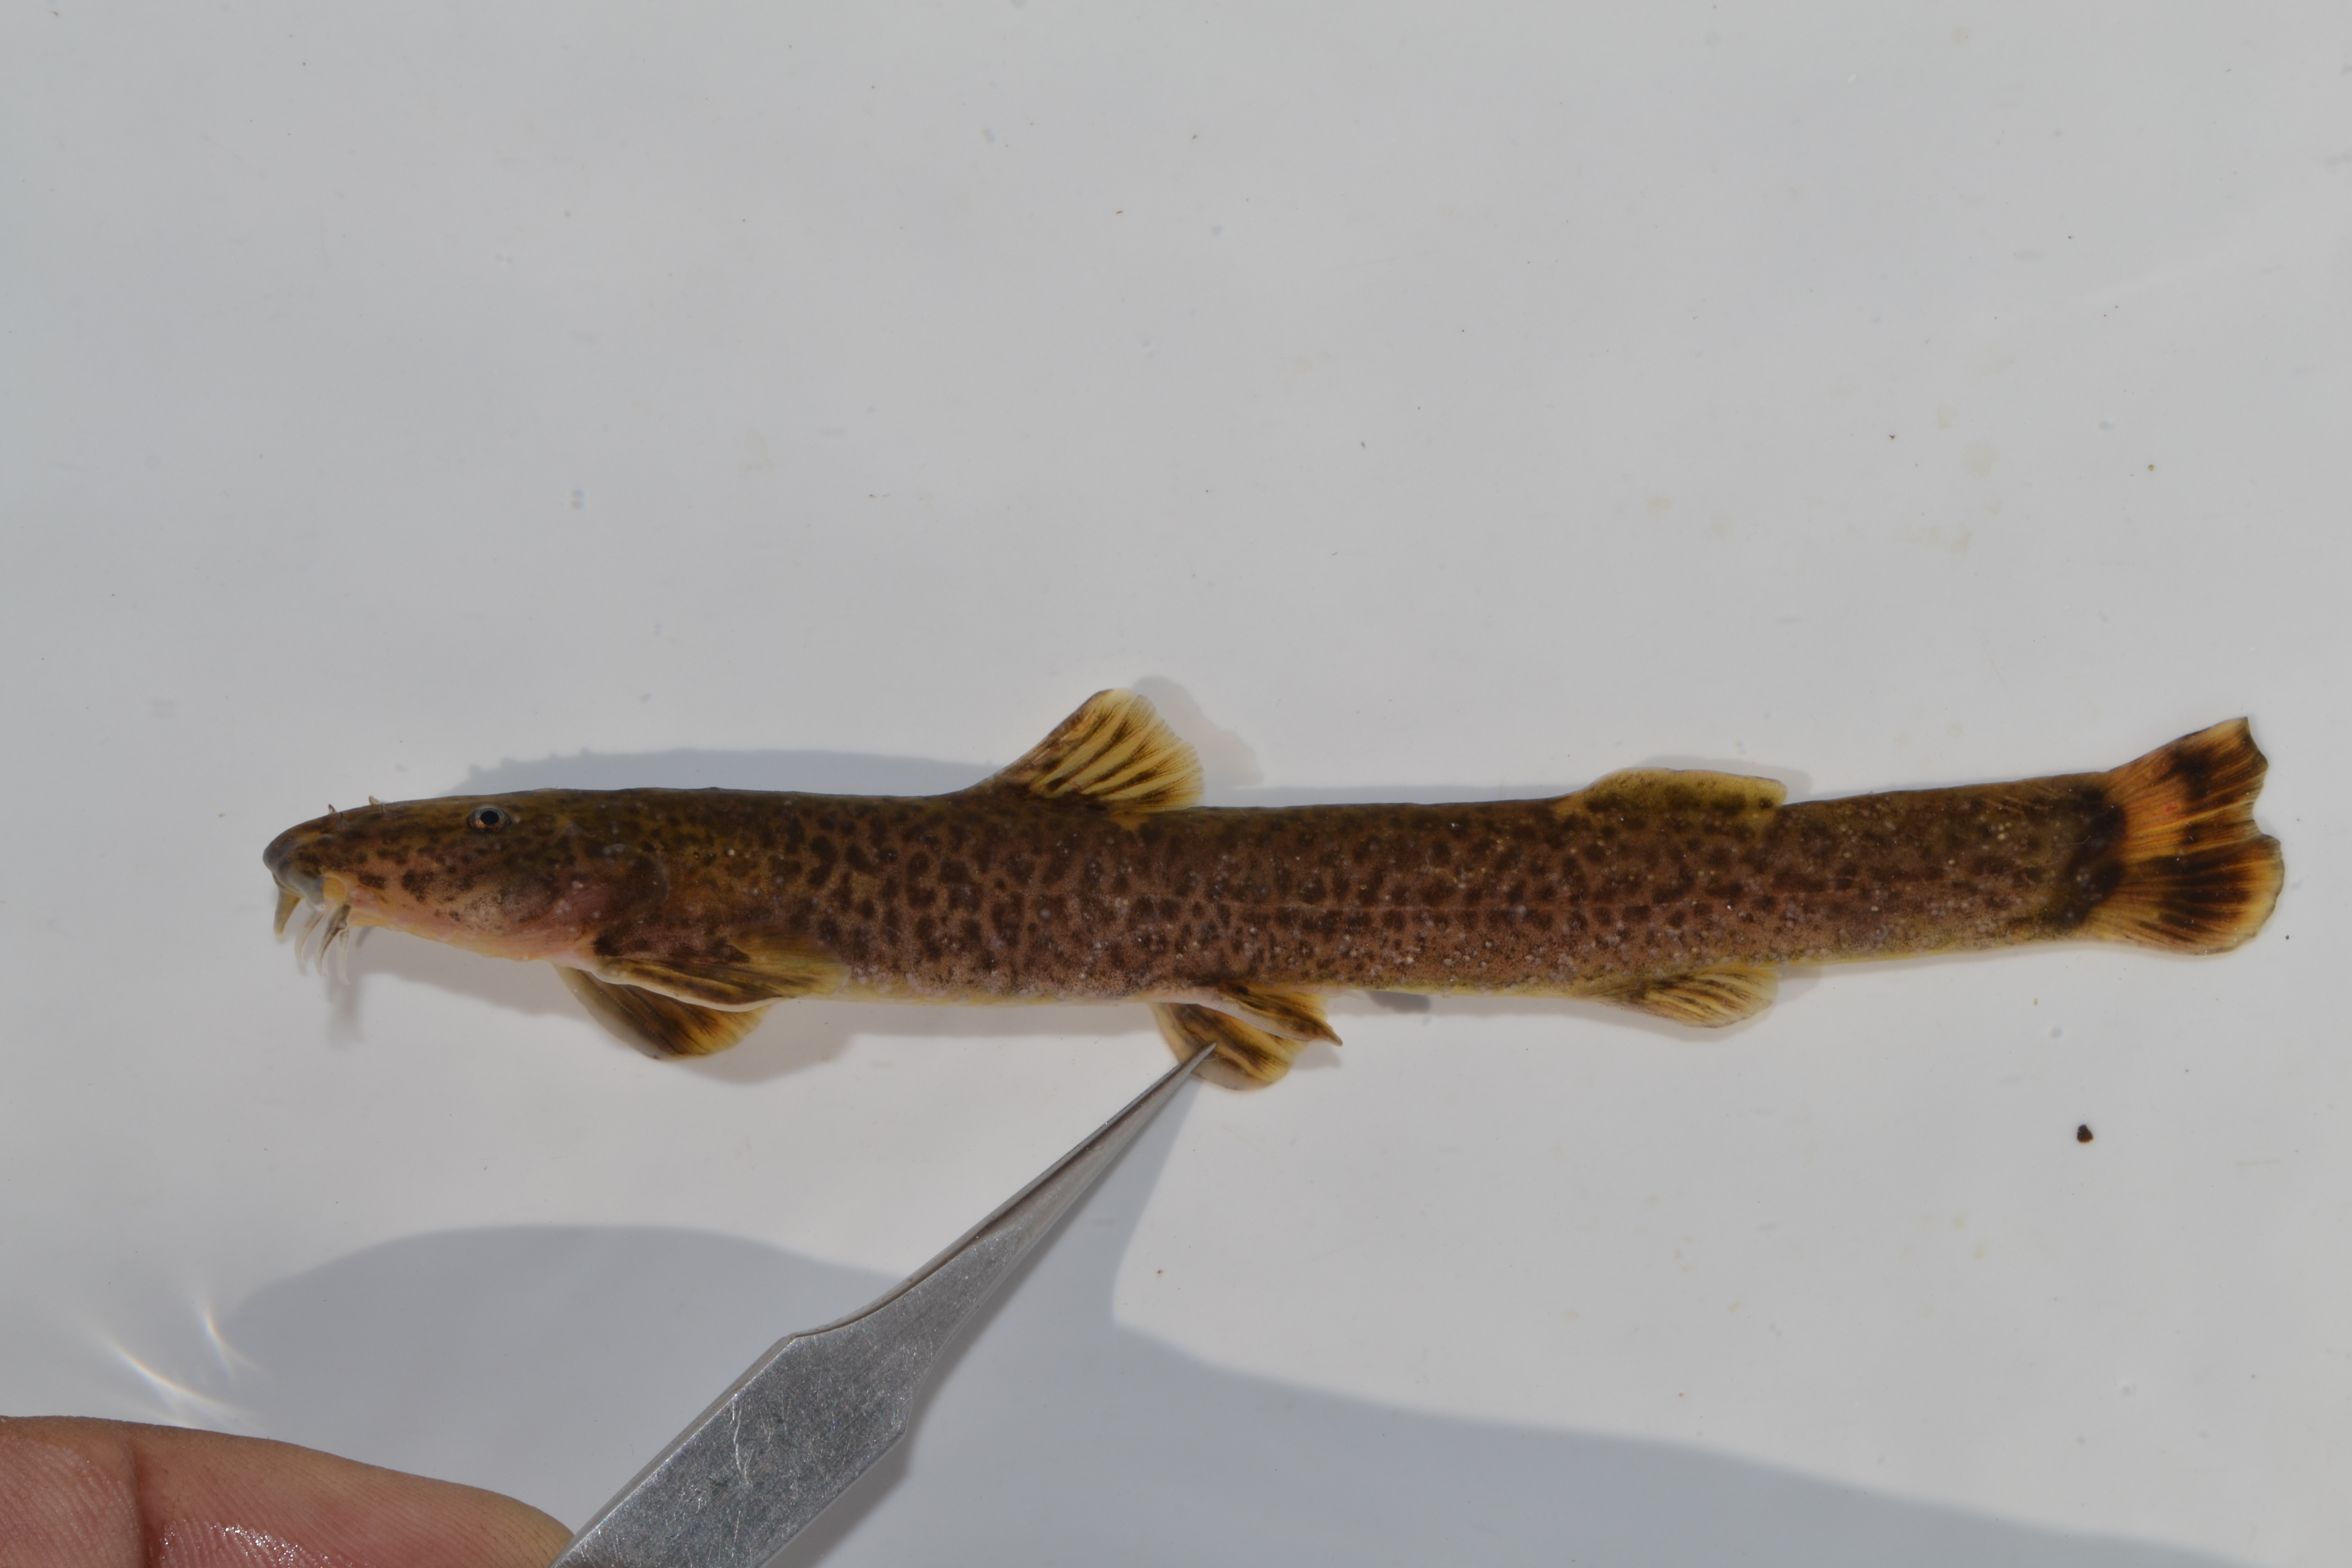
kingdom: Animalia
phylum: Chordata
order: Siluriformes
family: Amphiliidae
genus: Amphilius
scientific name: Amphilius natalensis
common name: Natal mountain catfish
